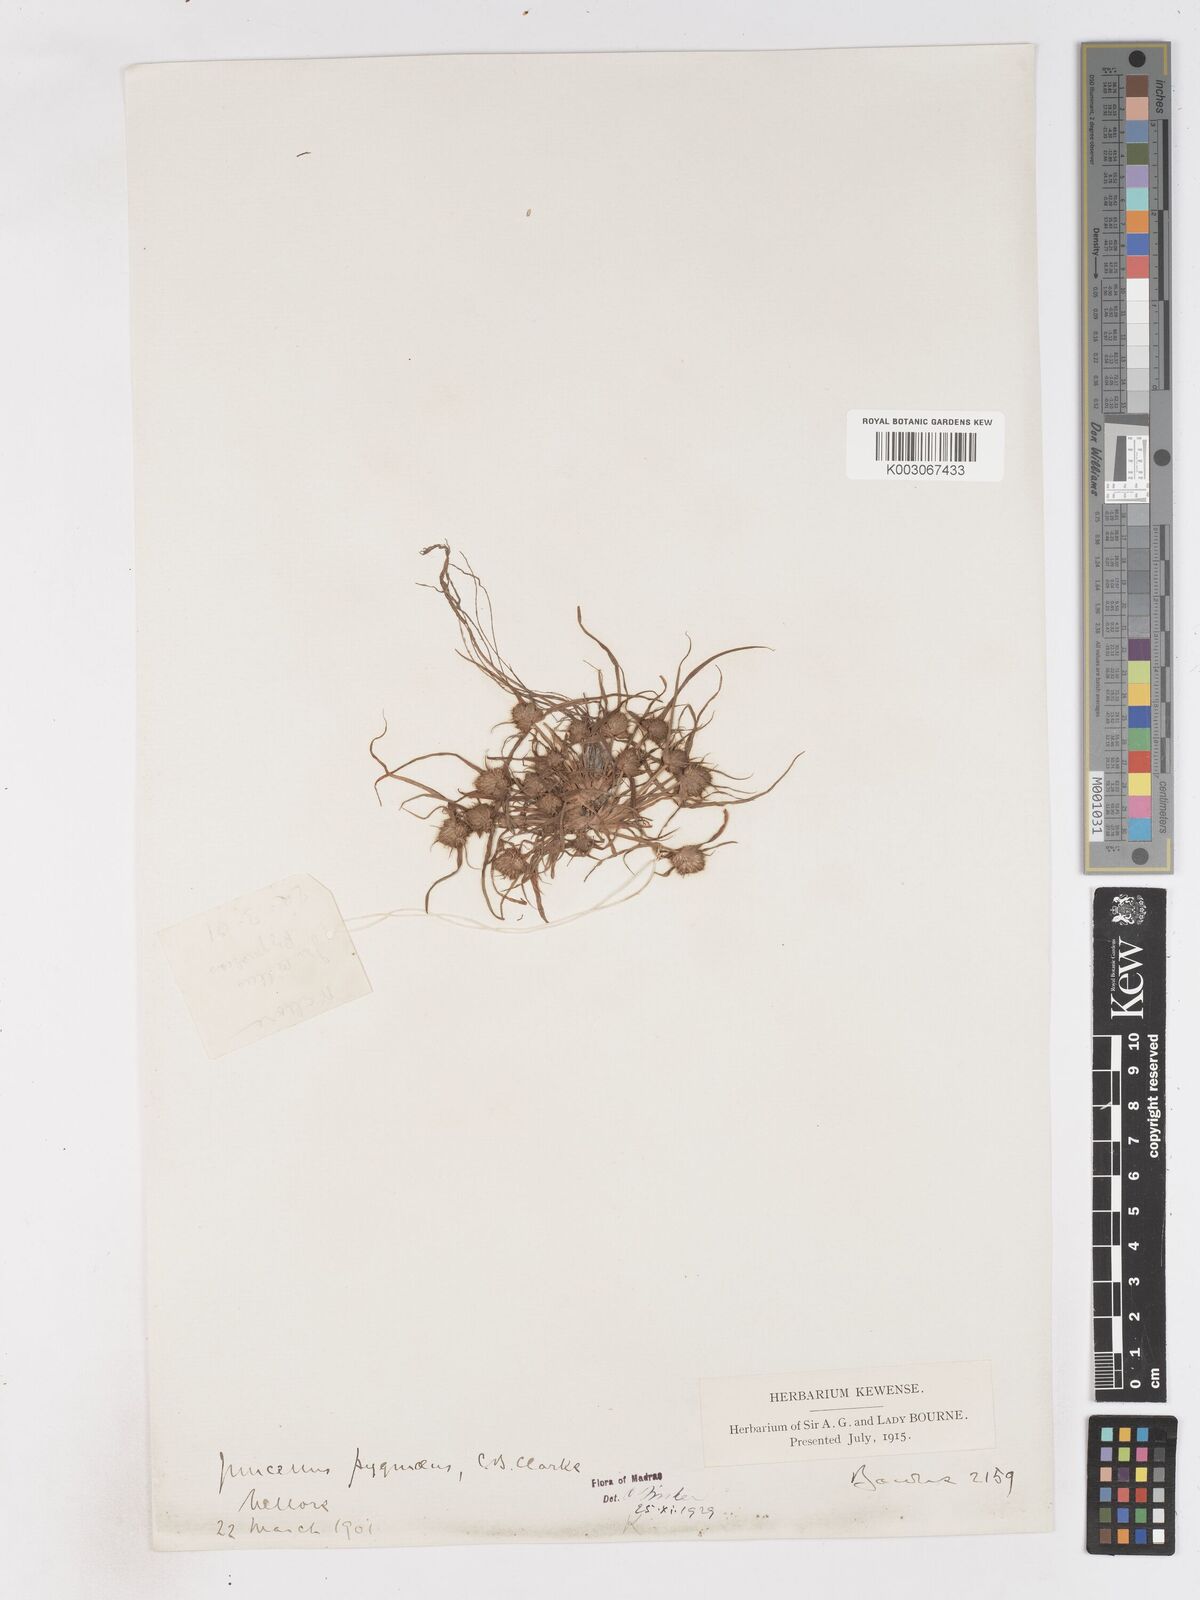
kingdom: Plantae
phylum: Tracheophyta
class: Liliopsida
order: Poales
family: Cyperaceae
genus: Cyperus
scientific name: Cyperus michelianus
